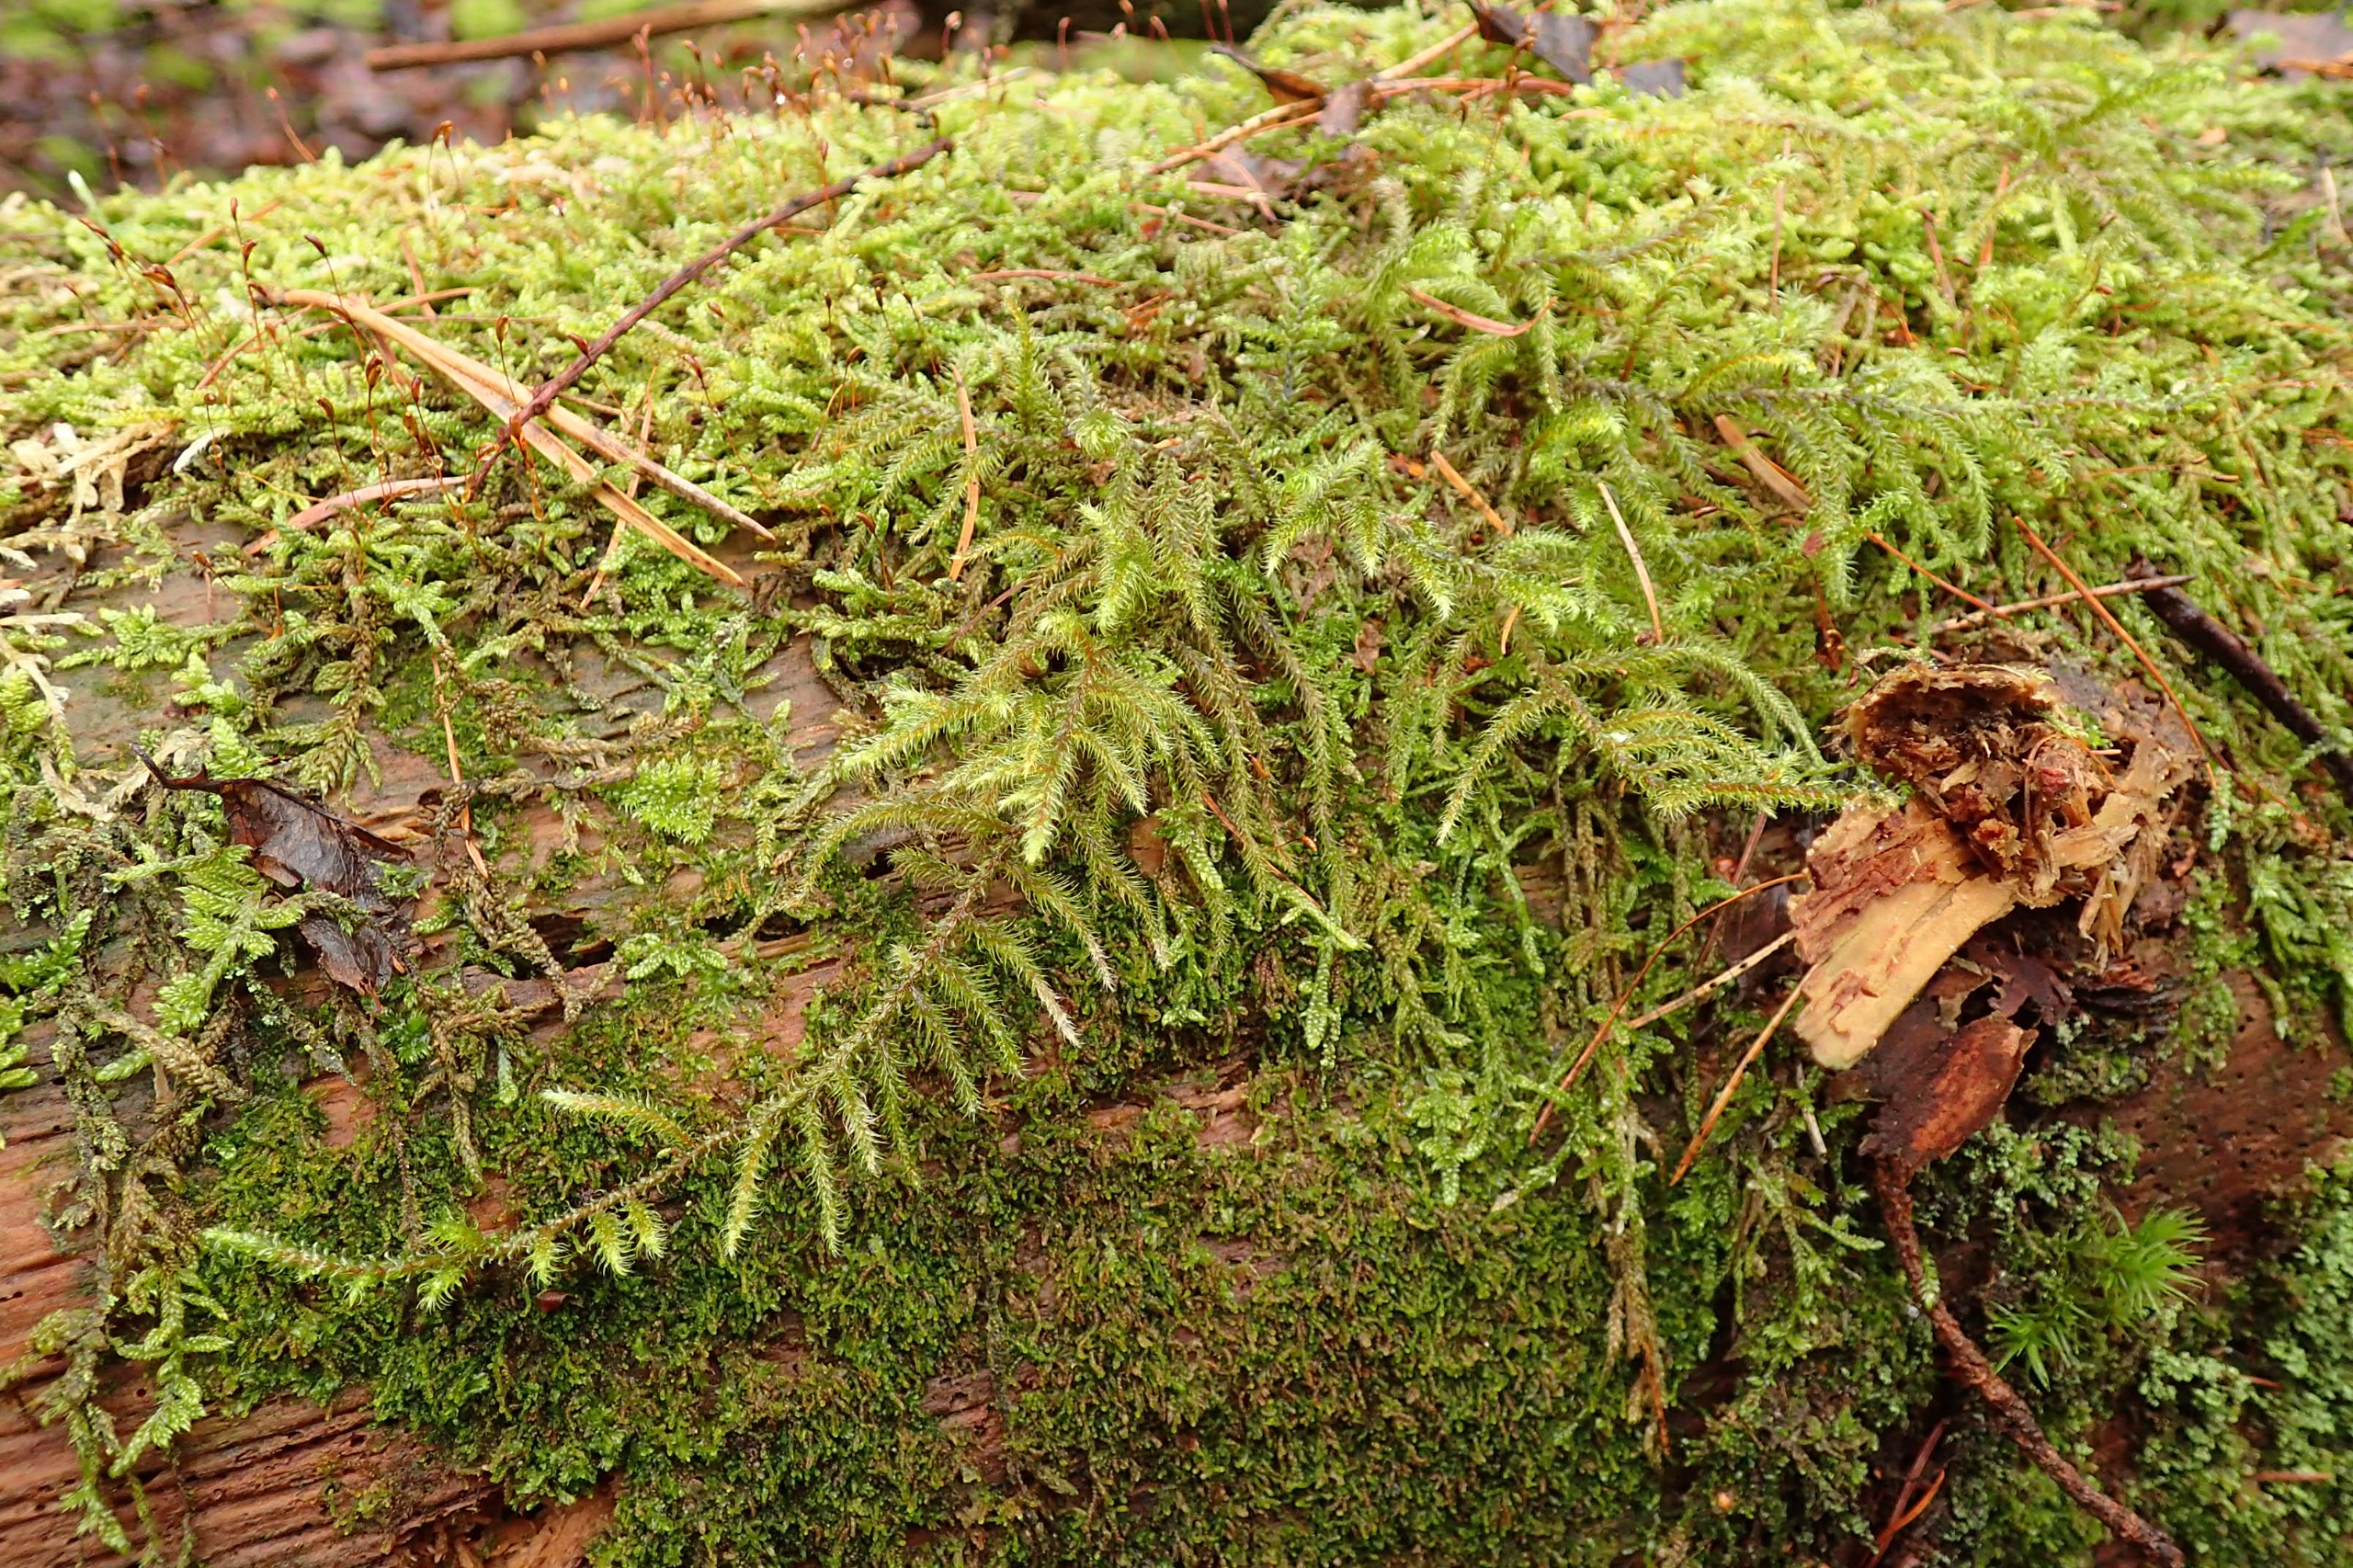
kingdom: Plantae
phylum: Bryophyta
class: Bryopsida
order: Hypnales
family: Hylocomiaceae
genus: Rhytidiadelphus
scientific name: Rhytidiadelphus loreus
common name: Ulvefod-kransemos
